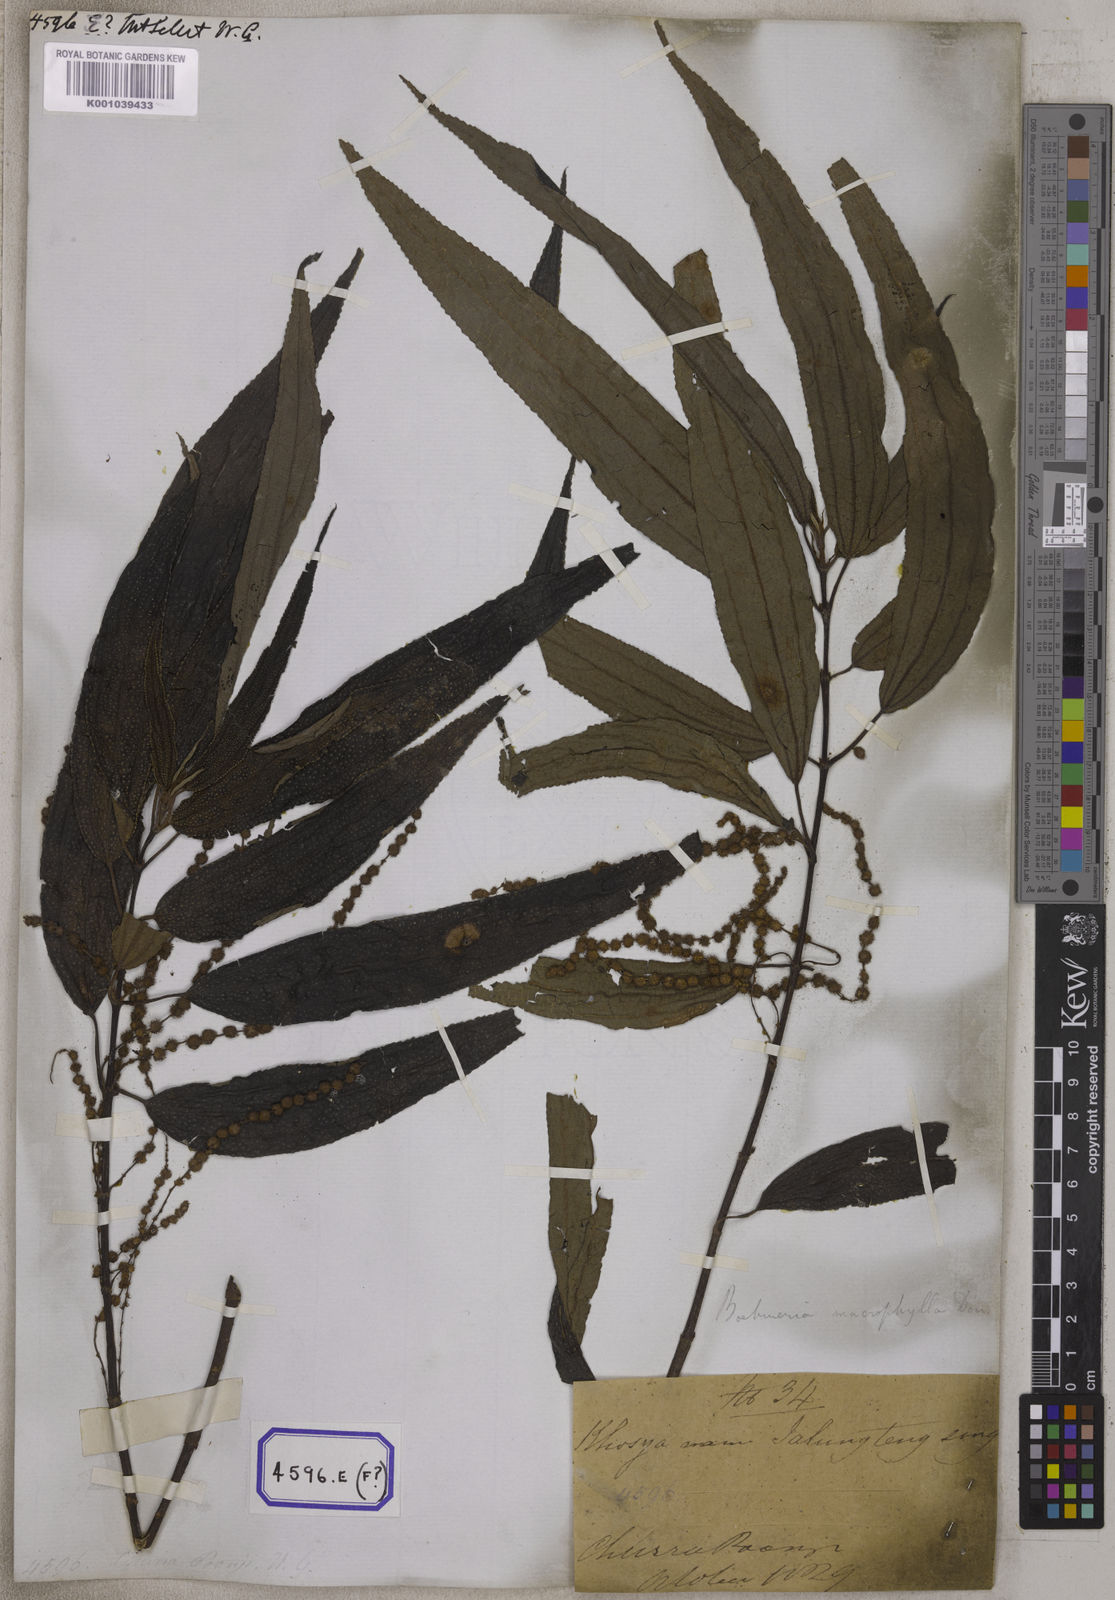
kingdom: Plantae
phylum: Tracheophyta
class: Magnoliopsida
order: Rosales
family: Urticaceae
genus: Boehmeria
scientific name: Boehmeria virgata
